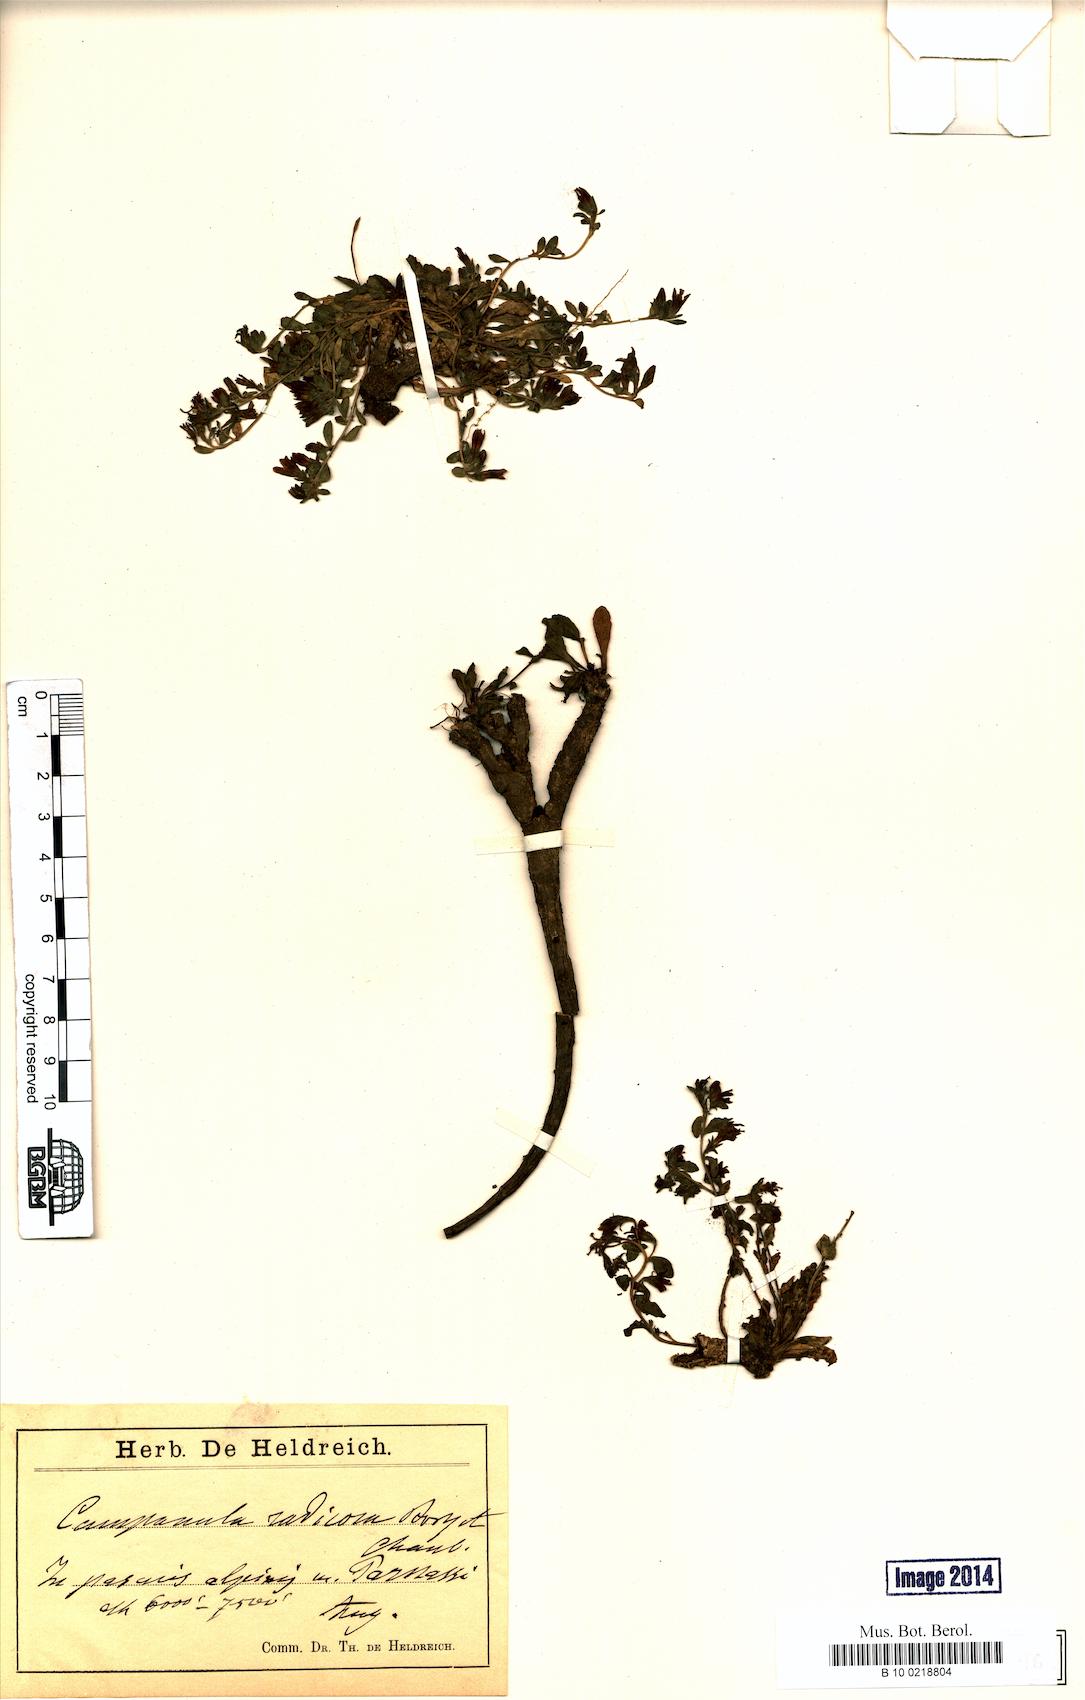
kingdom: Plantae
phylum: Tracheophyta
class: Magnoliopsida
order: Asterales
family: Campanulaceae
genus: Campanula
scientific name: Campanula radicosa
